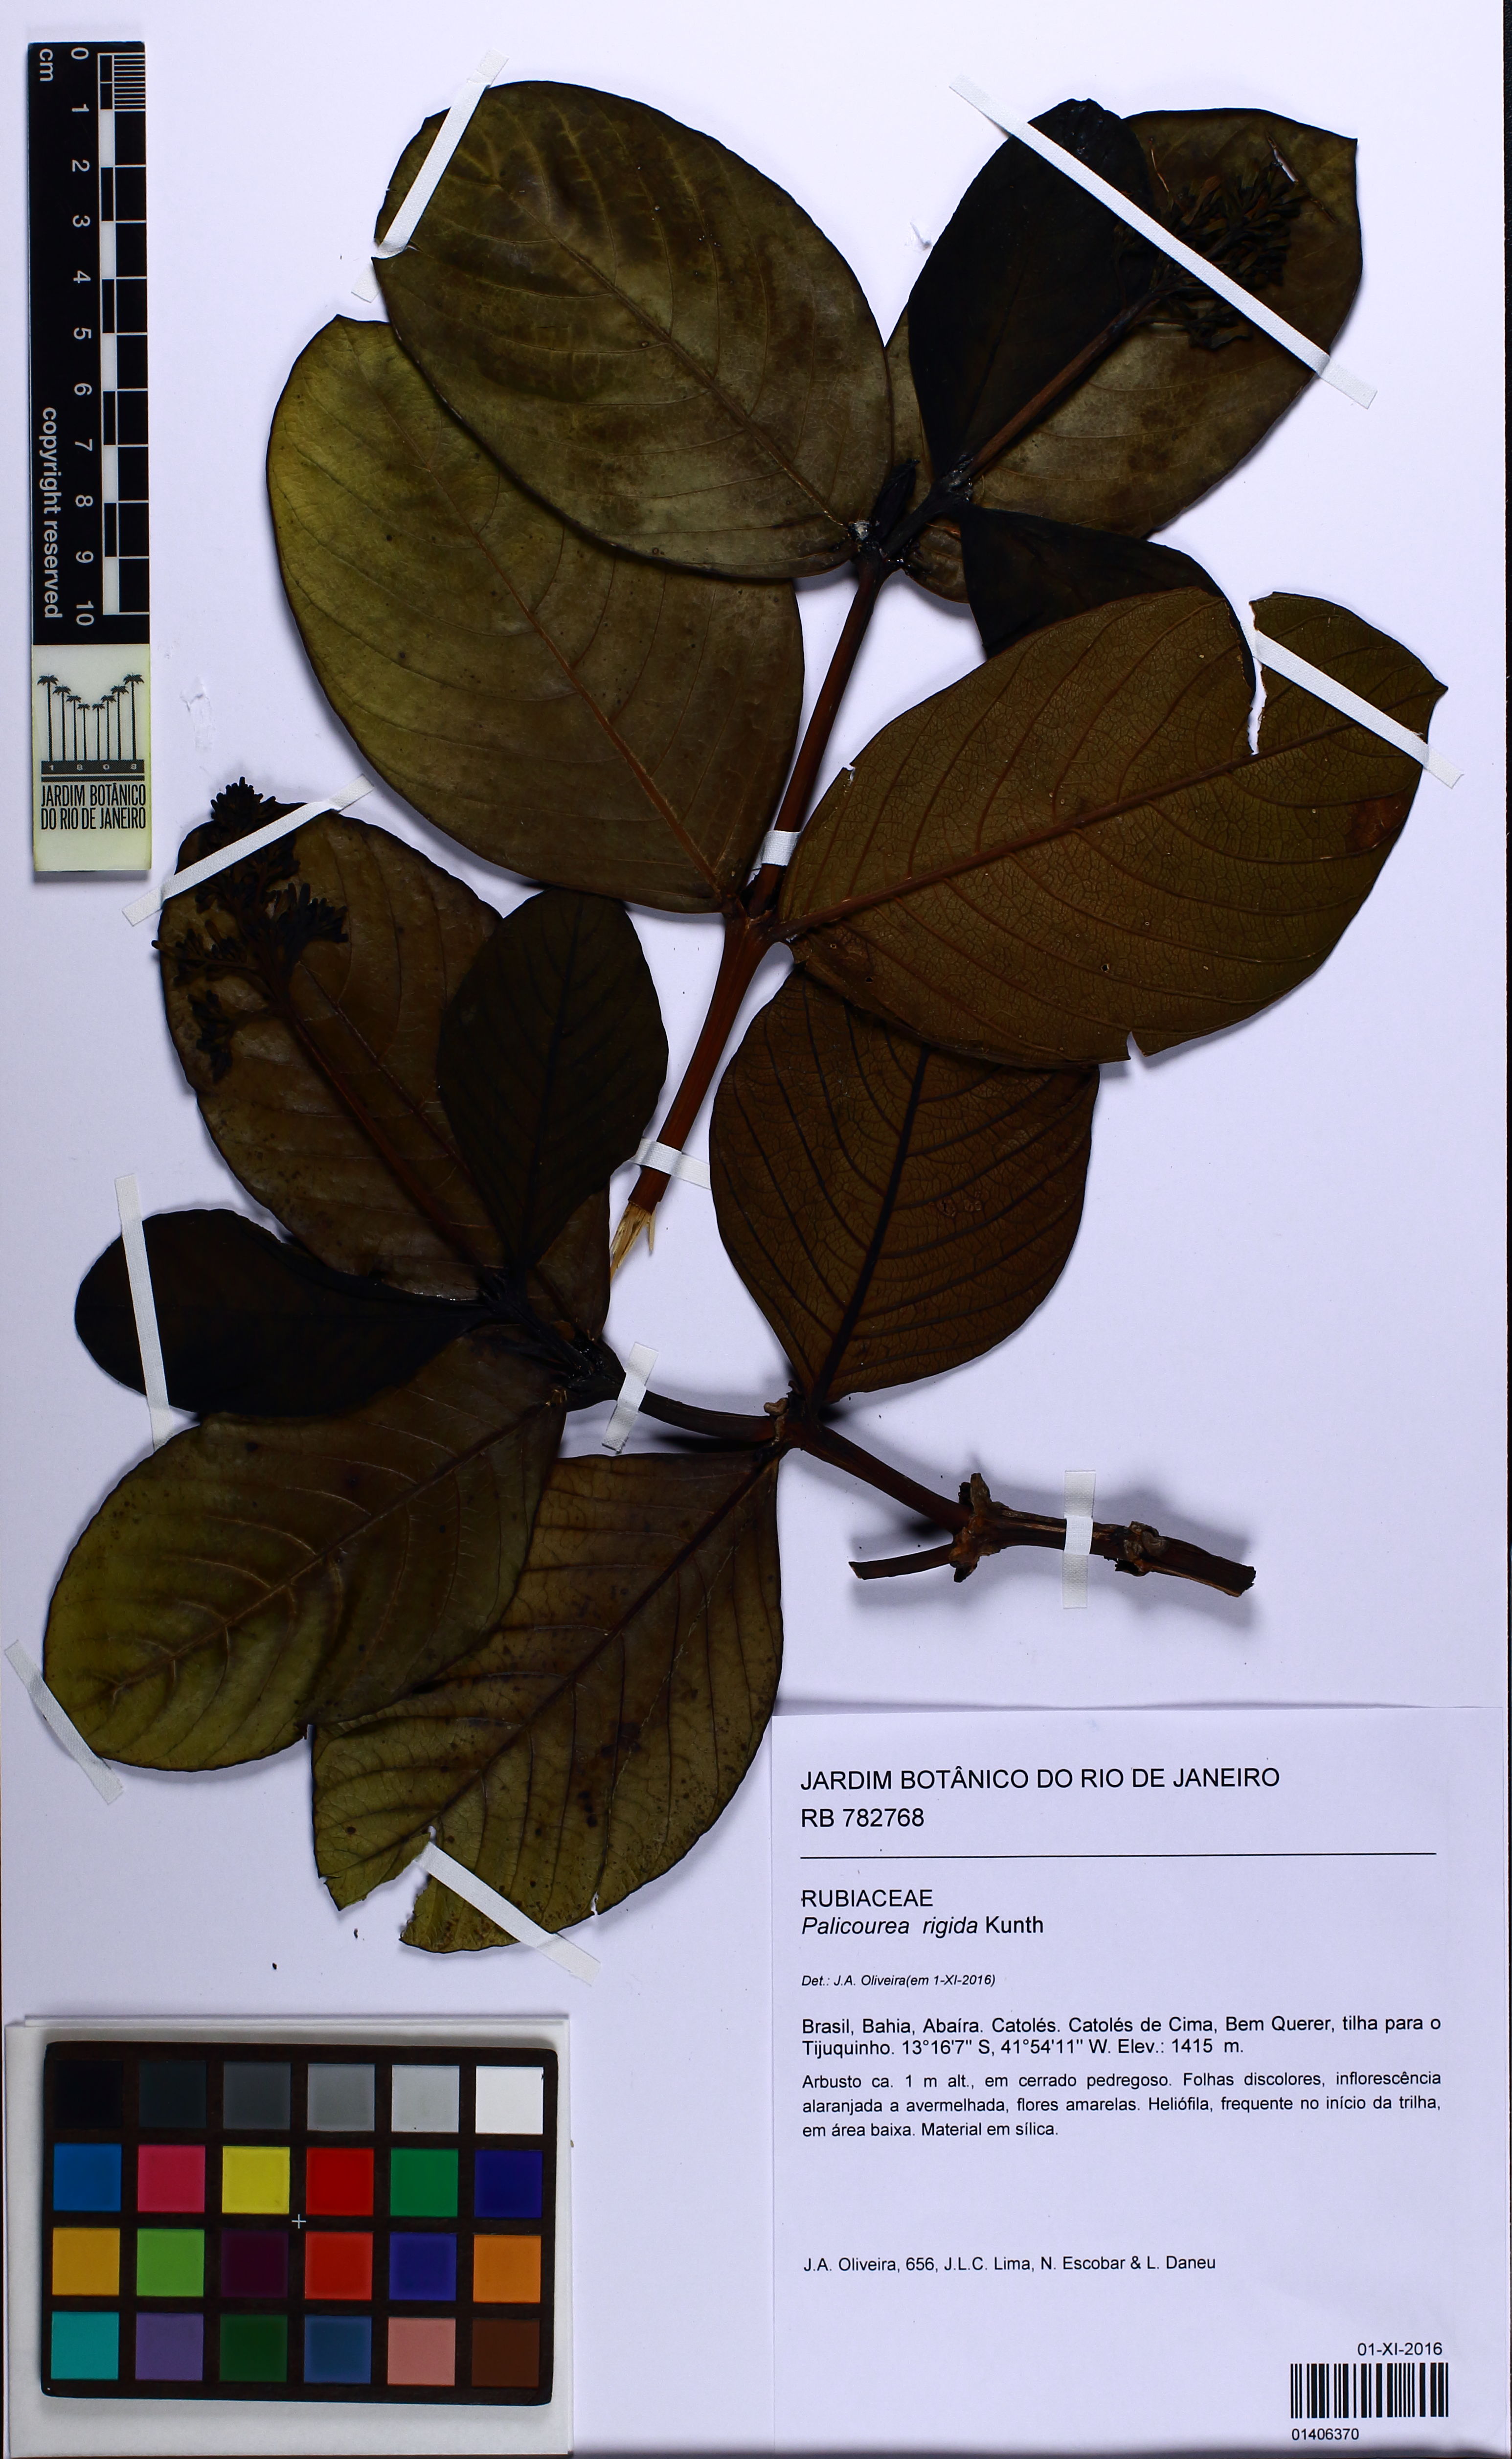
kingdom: Plantae
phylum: Tracheophyta
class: Magnoliopsida
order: Gentianales
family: Rubiaceae
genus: Palicourea
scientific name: Palicourea rigida
